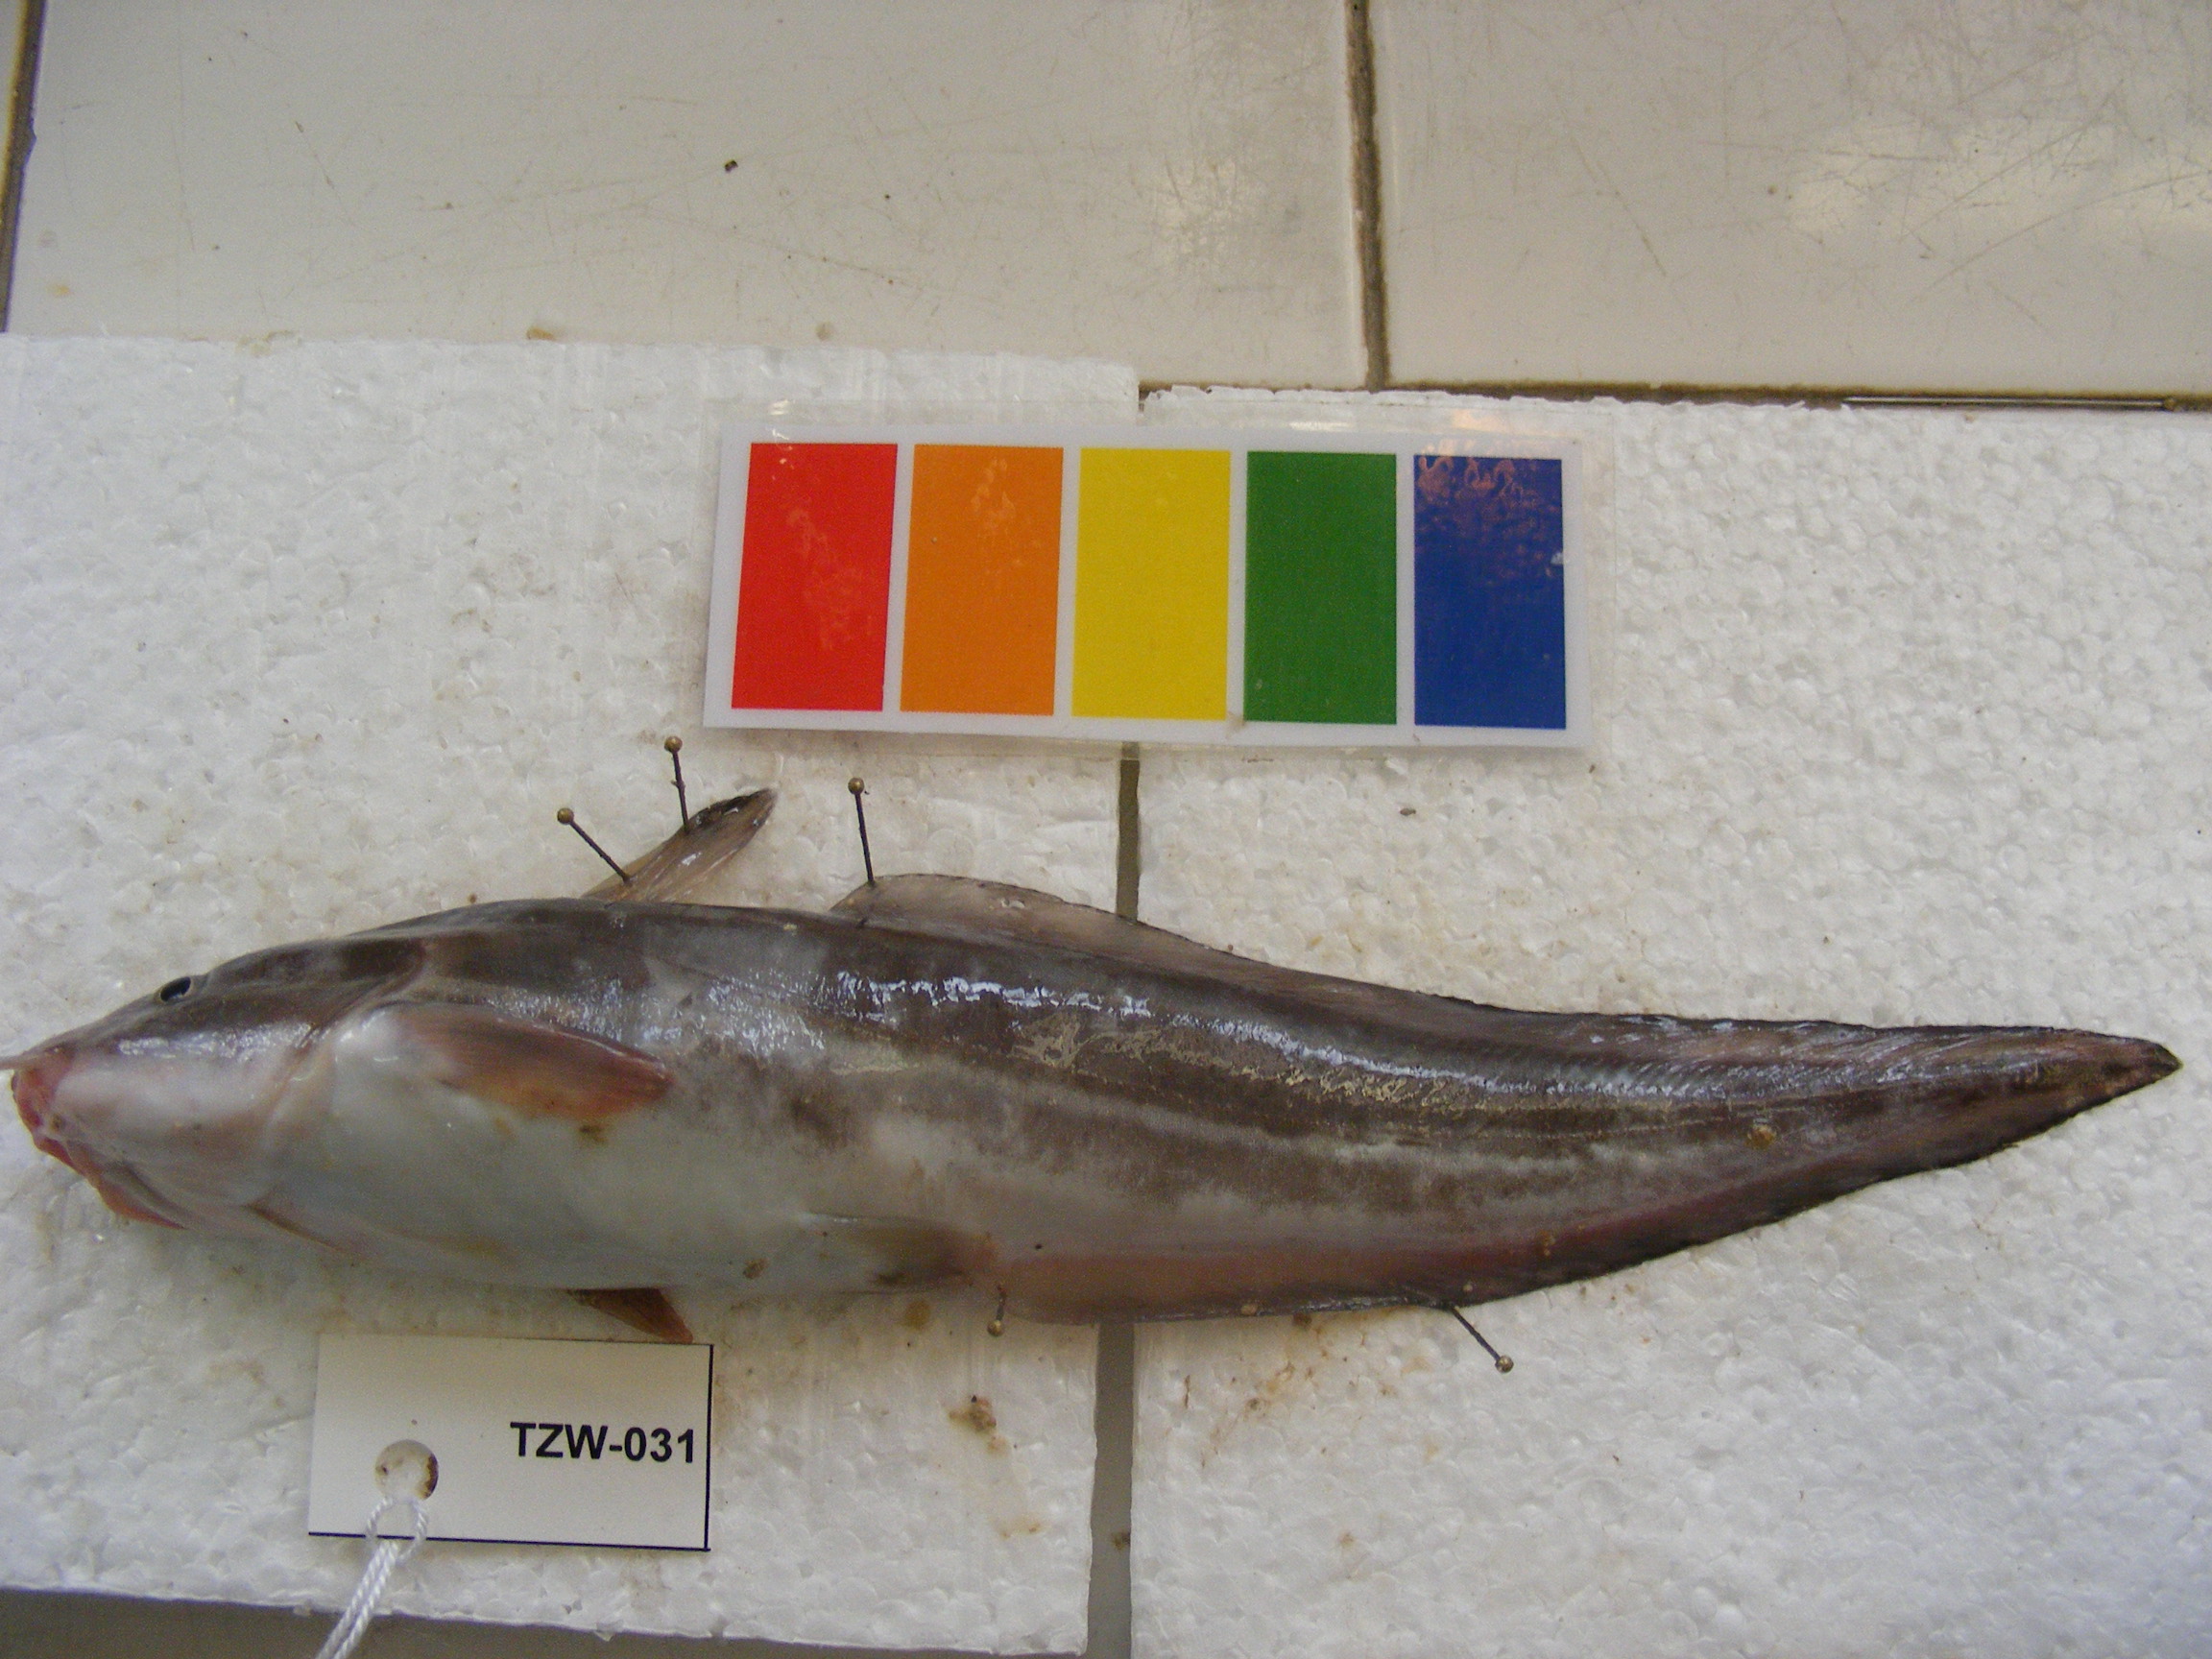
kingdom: Animalia
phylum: Chordata
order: Siluriformes
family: Plotosidae
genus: Plotosus
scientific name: Plotosus nkunga
